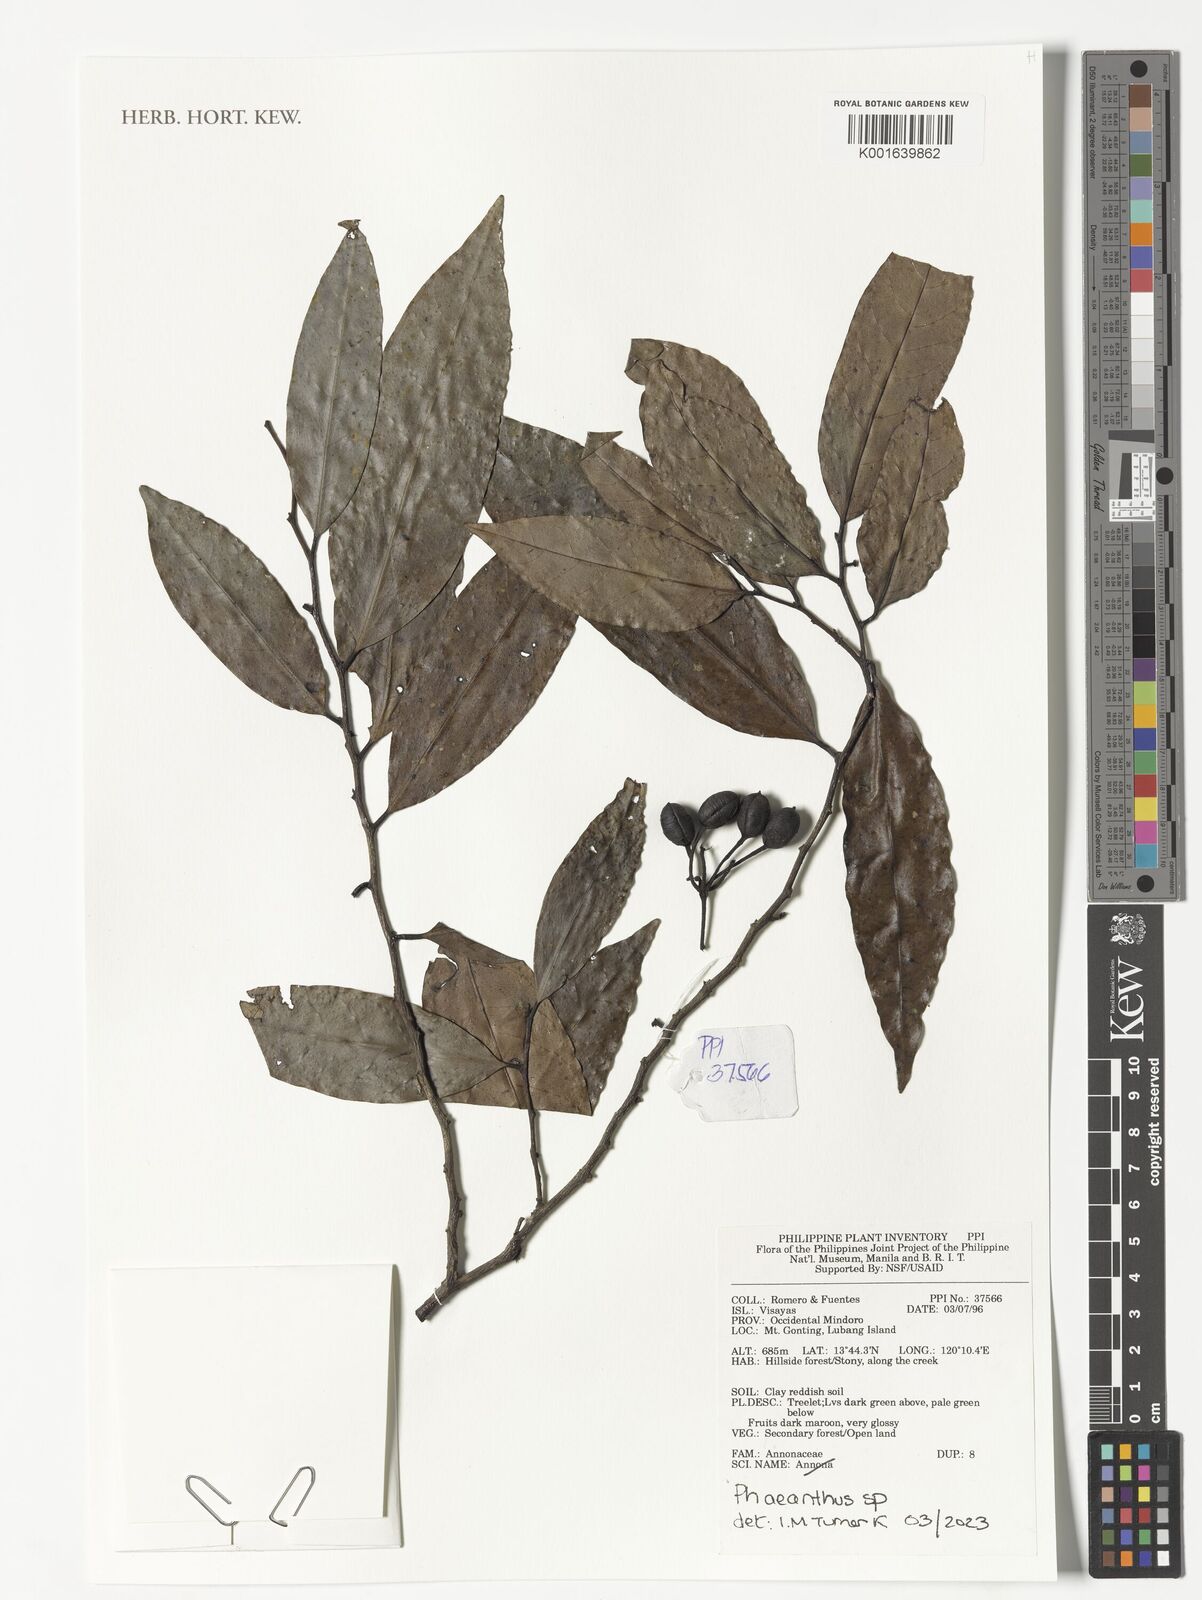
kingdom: Plantae
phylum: Tracheophyta
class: Magnoliopsida
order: Magnoliales
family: Annonaceae
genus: Phaeanthus
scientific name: Phaeanthus
